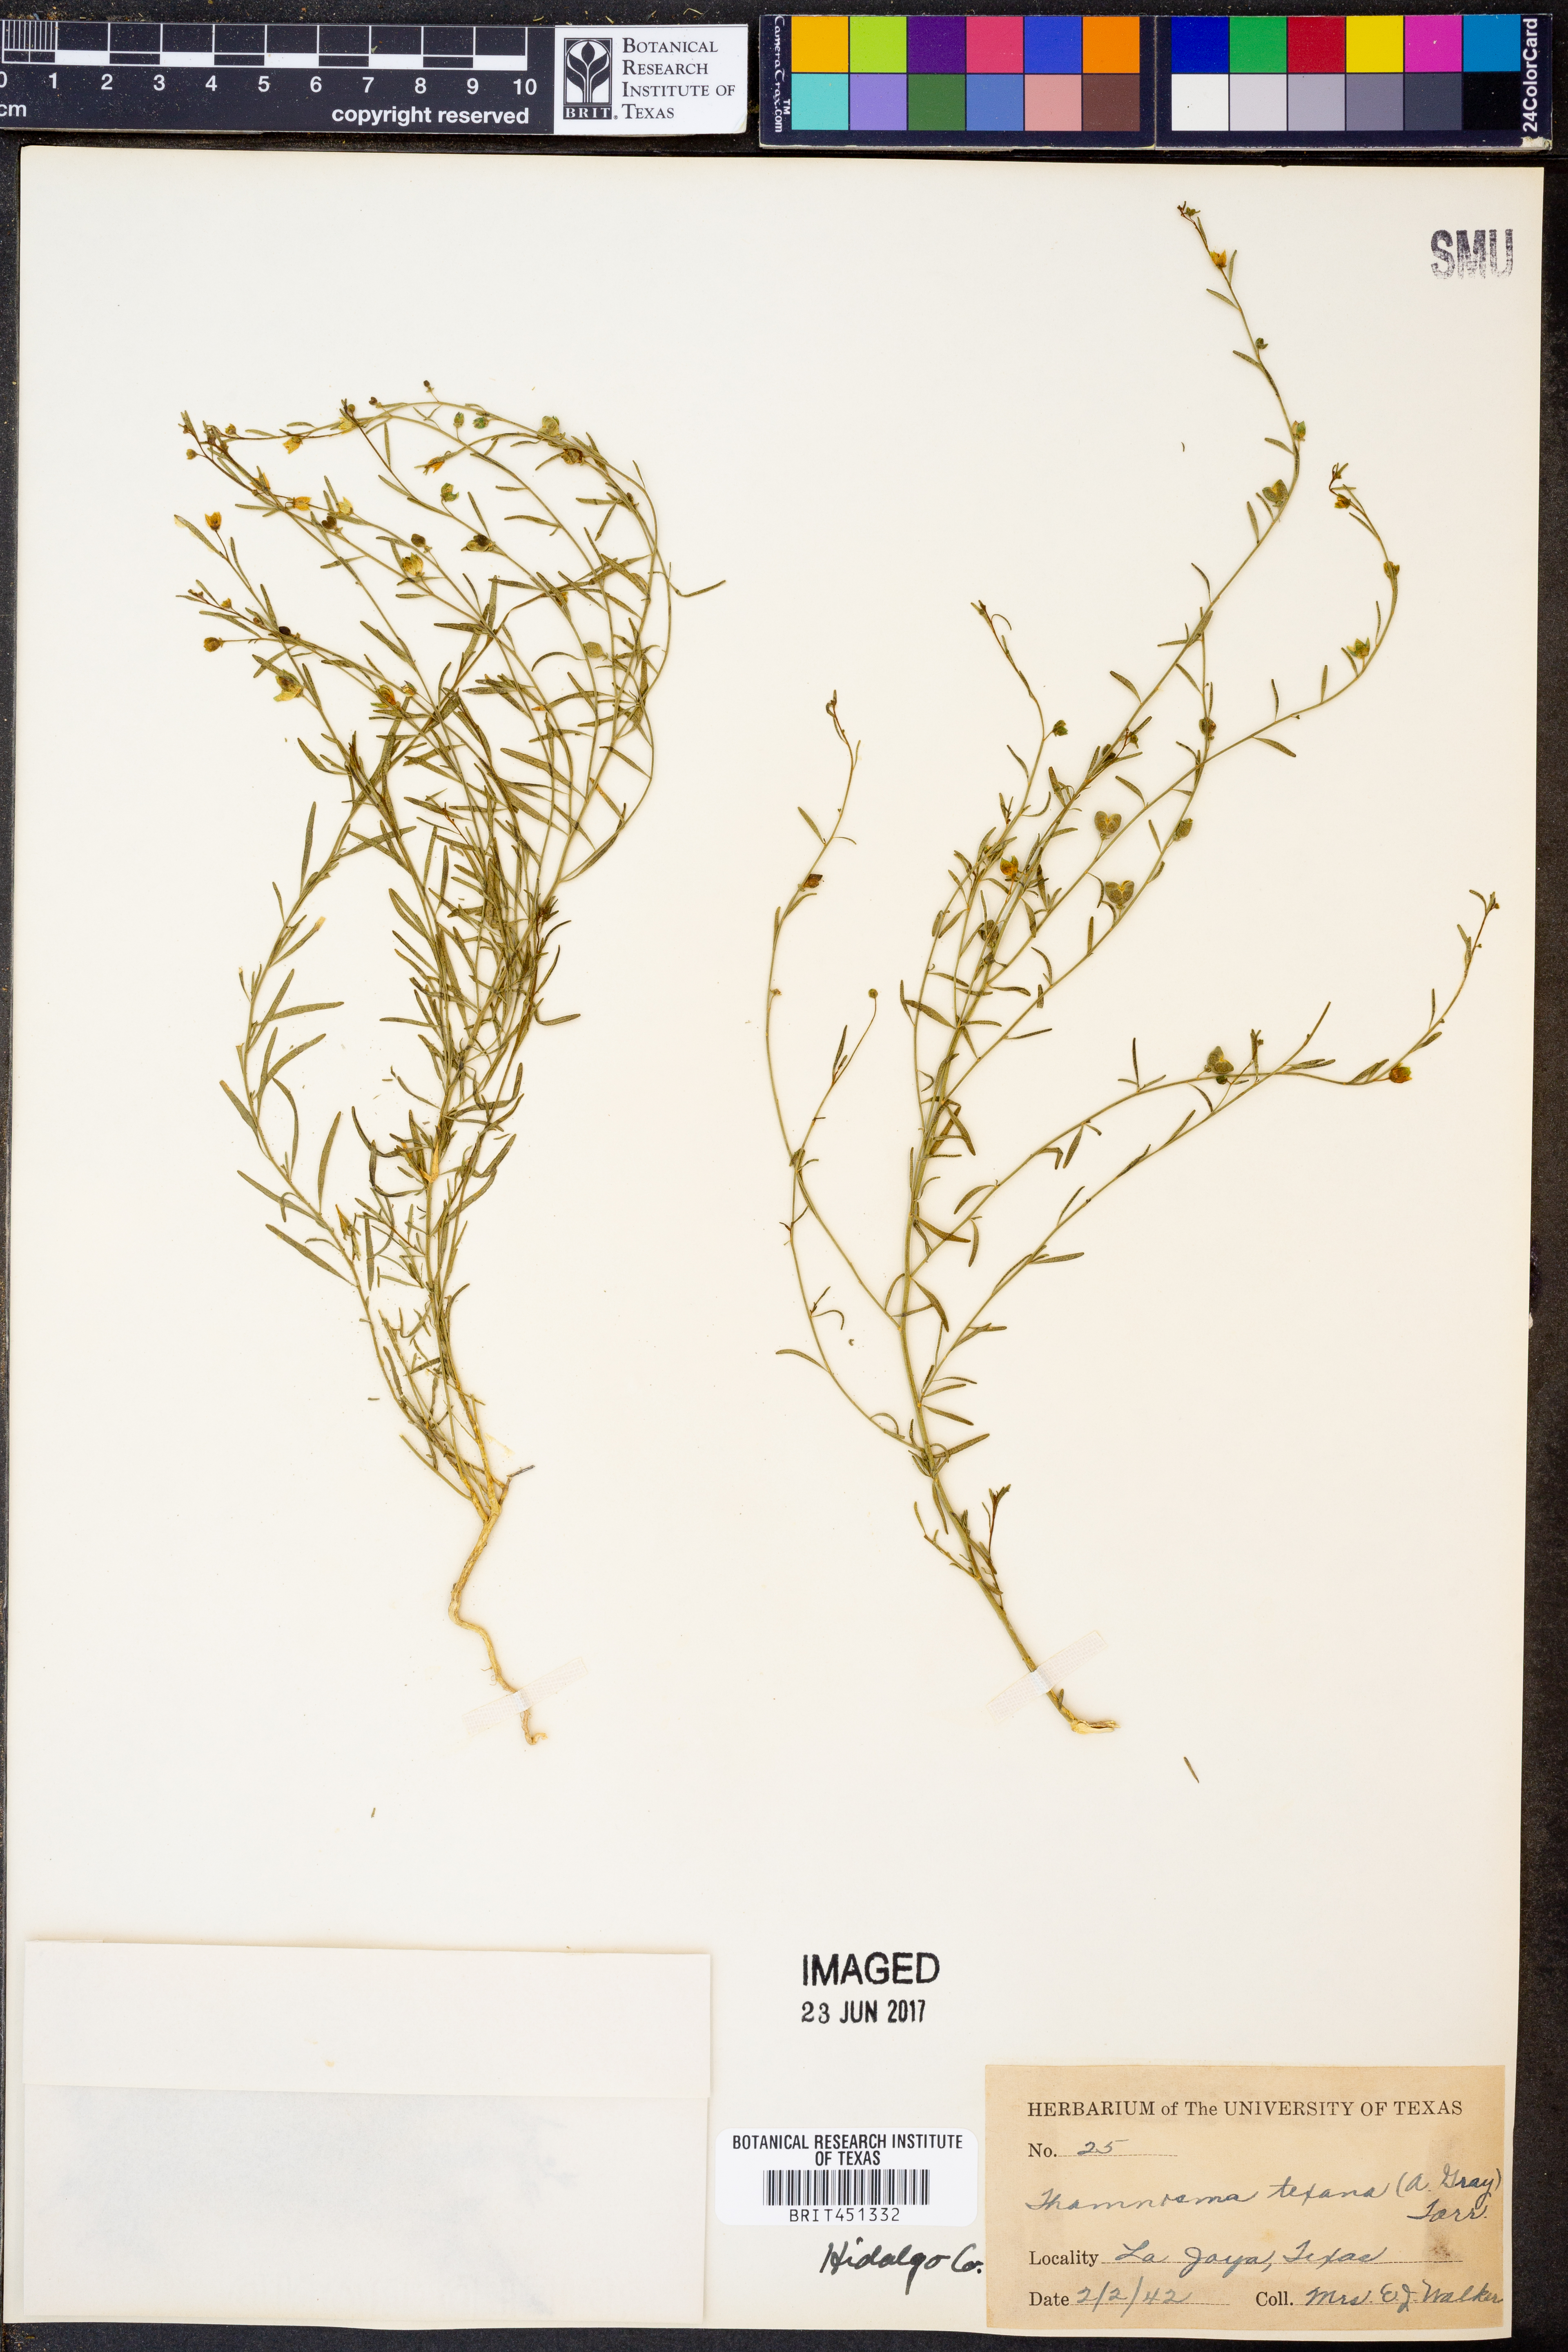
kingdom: Plantae
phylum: Tracheophyta
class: Magnoliopsida
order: Sapindales
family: Rutaceae
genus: Thamnosma
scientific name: Thamnosma texana
